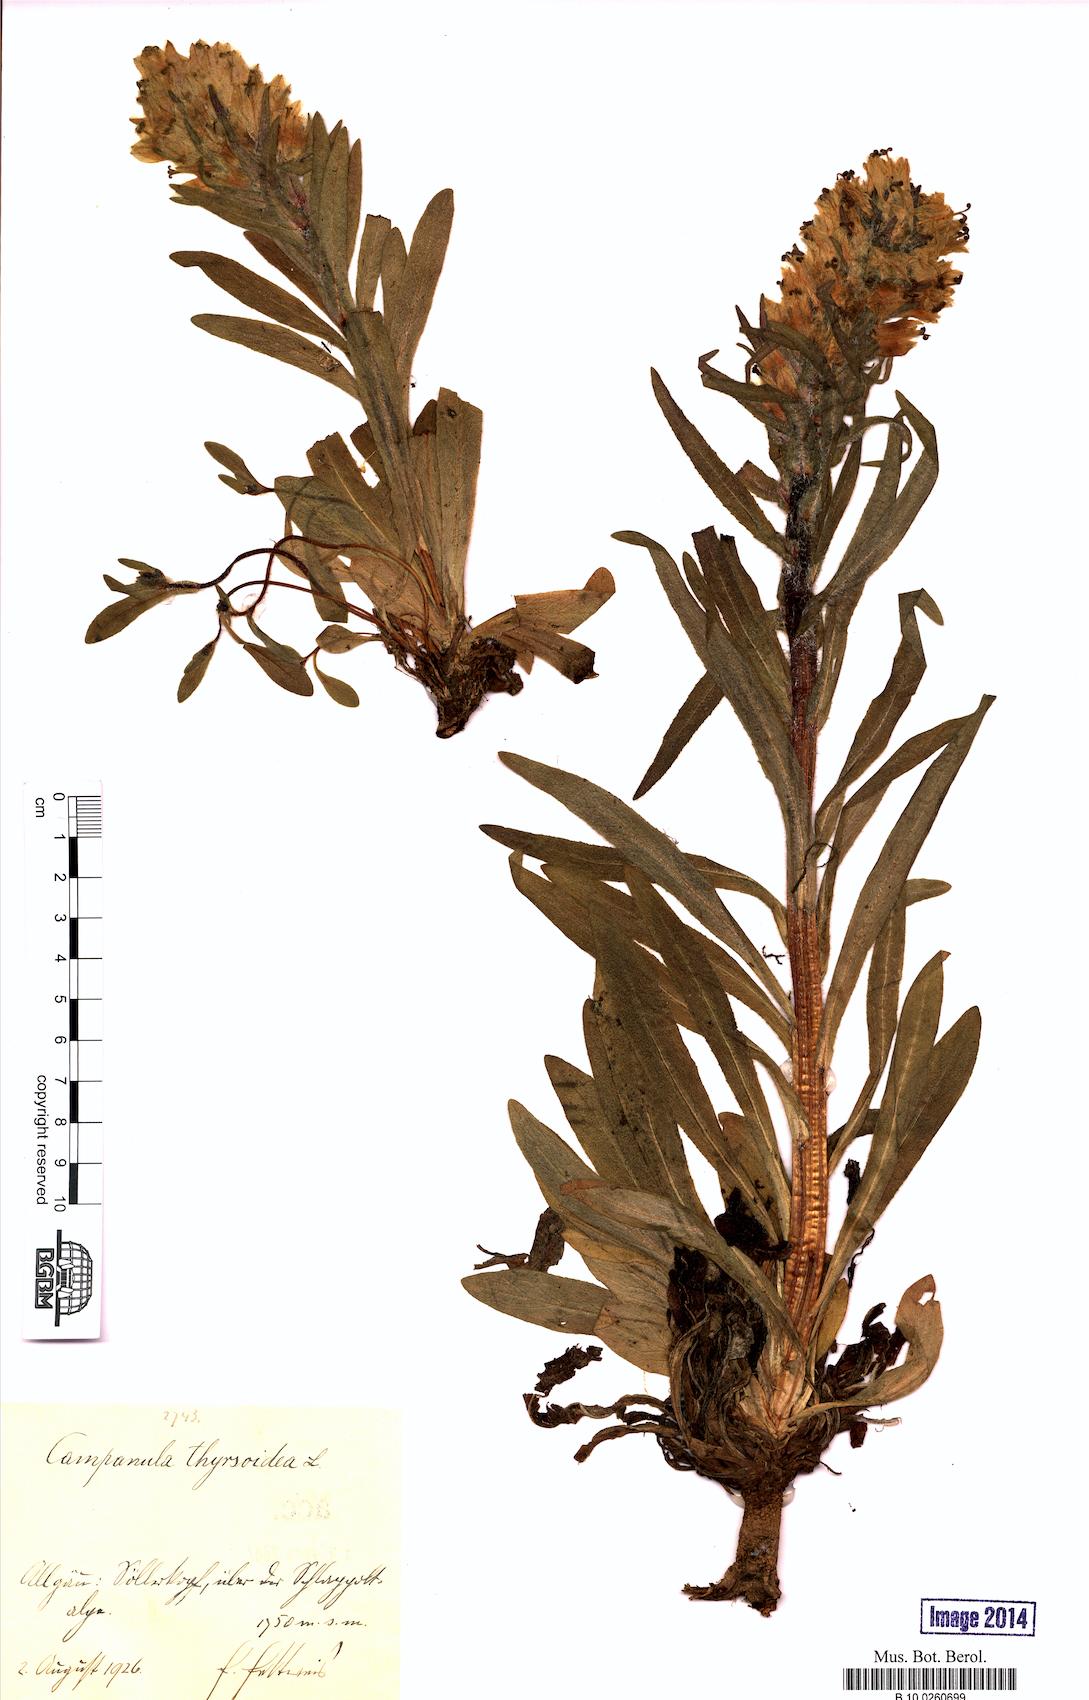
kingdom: Plantae
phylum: Tracheophyta
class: Magnoliopsida
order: Asterales
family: Campanulaceae
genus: Campanula
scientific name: Campanula thyrsoides
